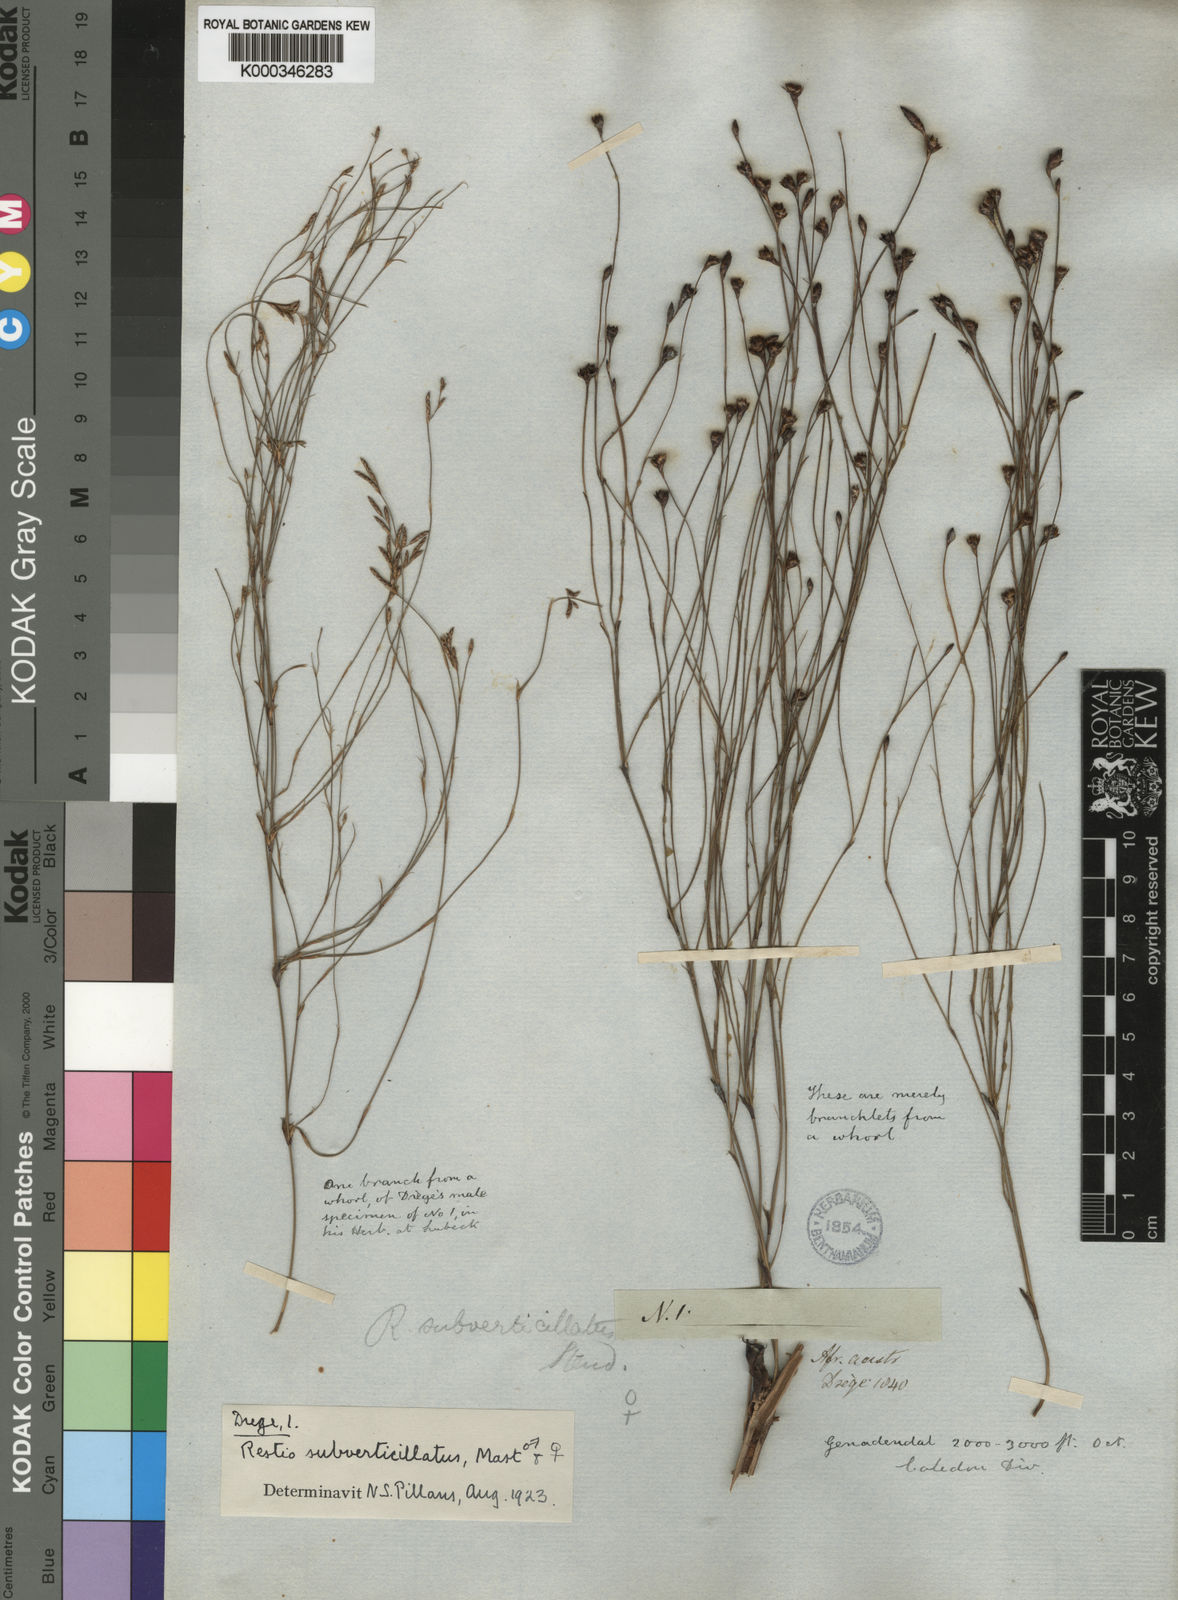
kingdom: Plantae
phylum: Tracheophyta
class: Liliopsida
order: Poales
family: Restionaceae
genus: Restio
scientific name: Restio subverticillatus
